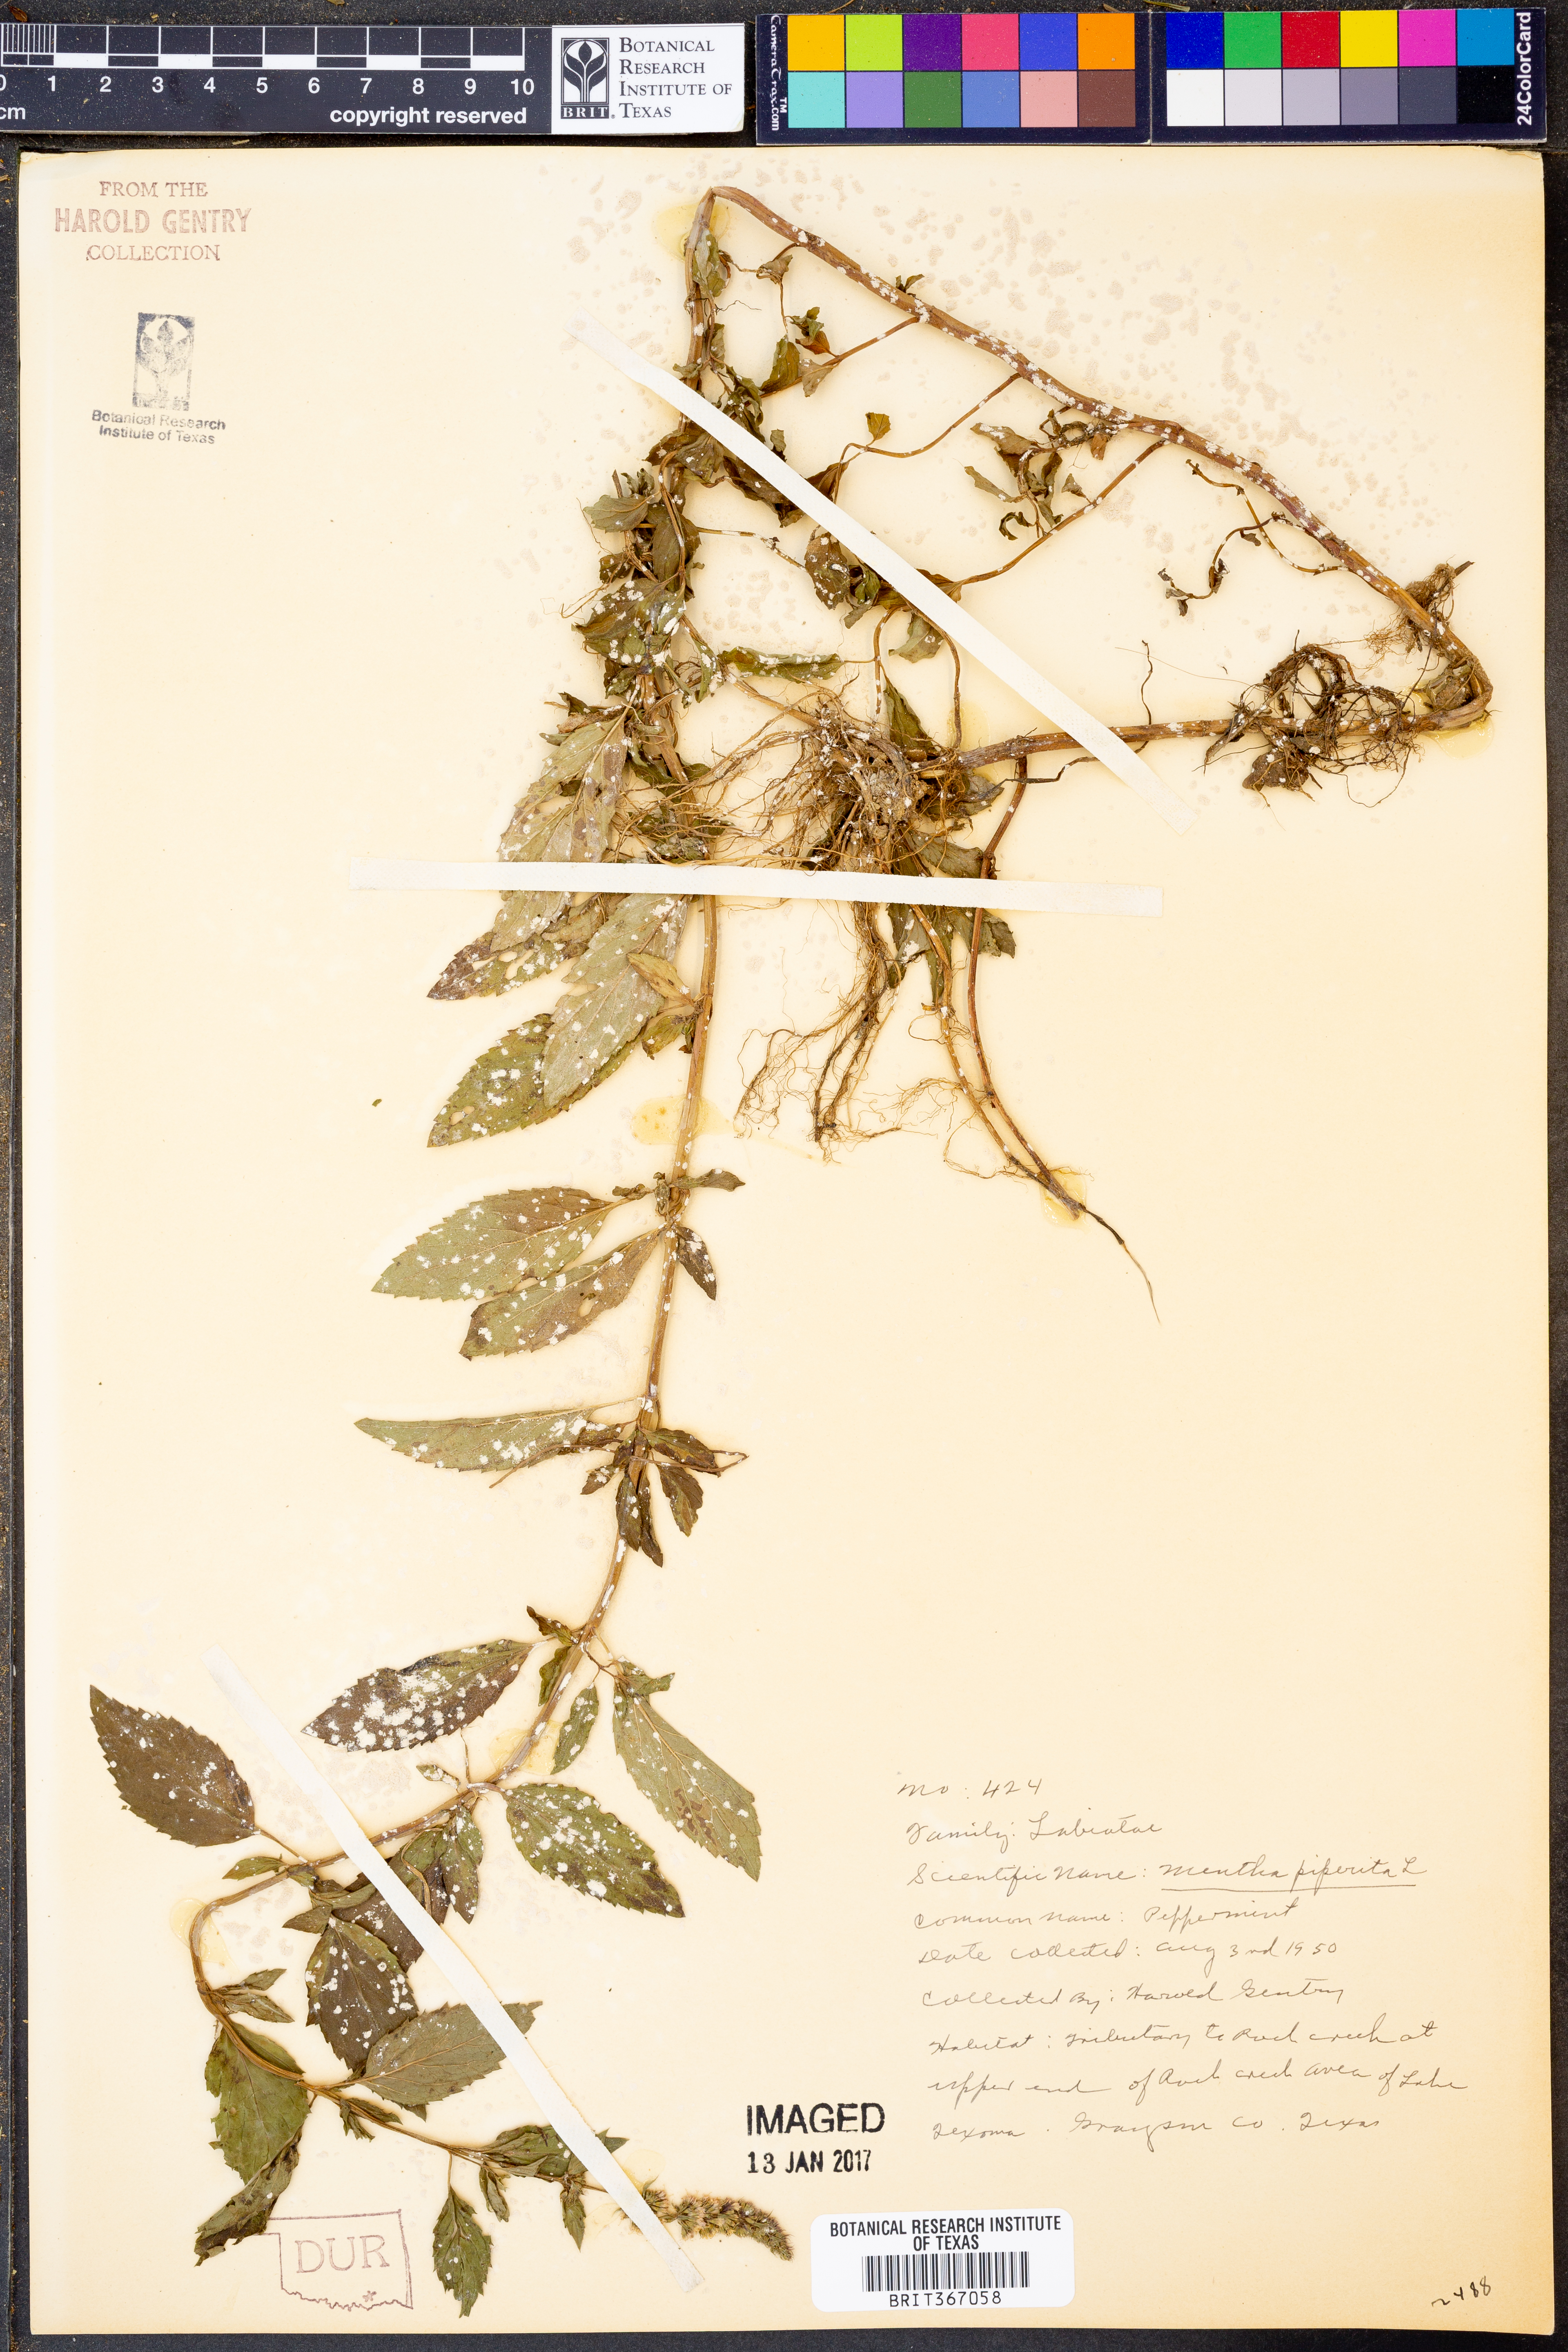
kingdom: Plantae
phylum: Tracheophyta
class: Magnoliopsida
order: Lamiales
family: Lamiaceae
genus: Mentha
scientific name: Mentha piperita
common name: Peppermint
